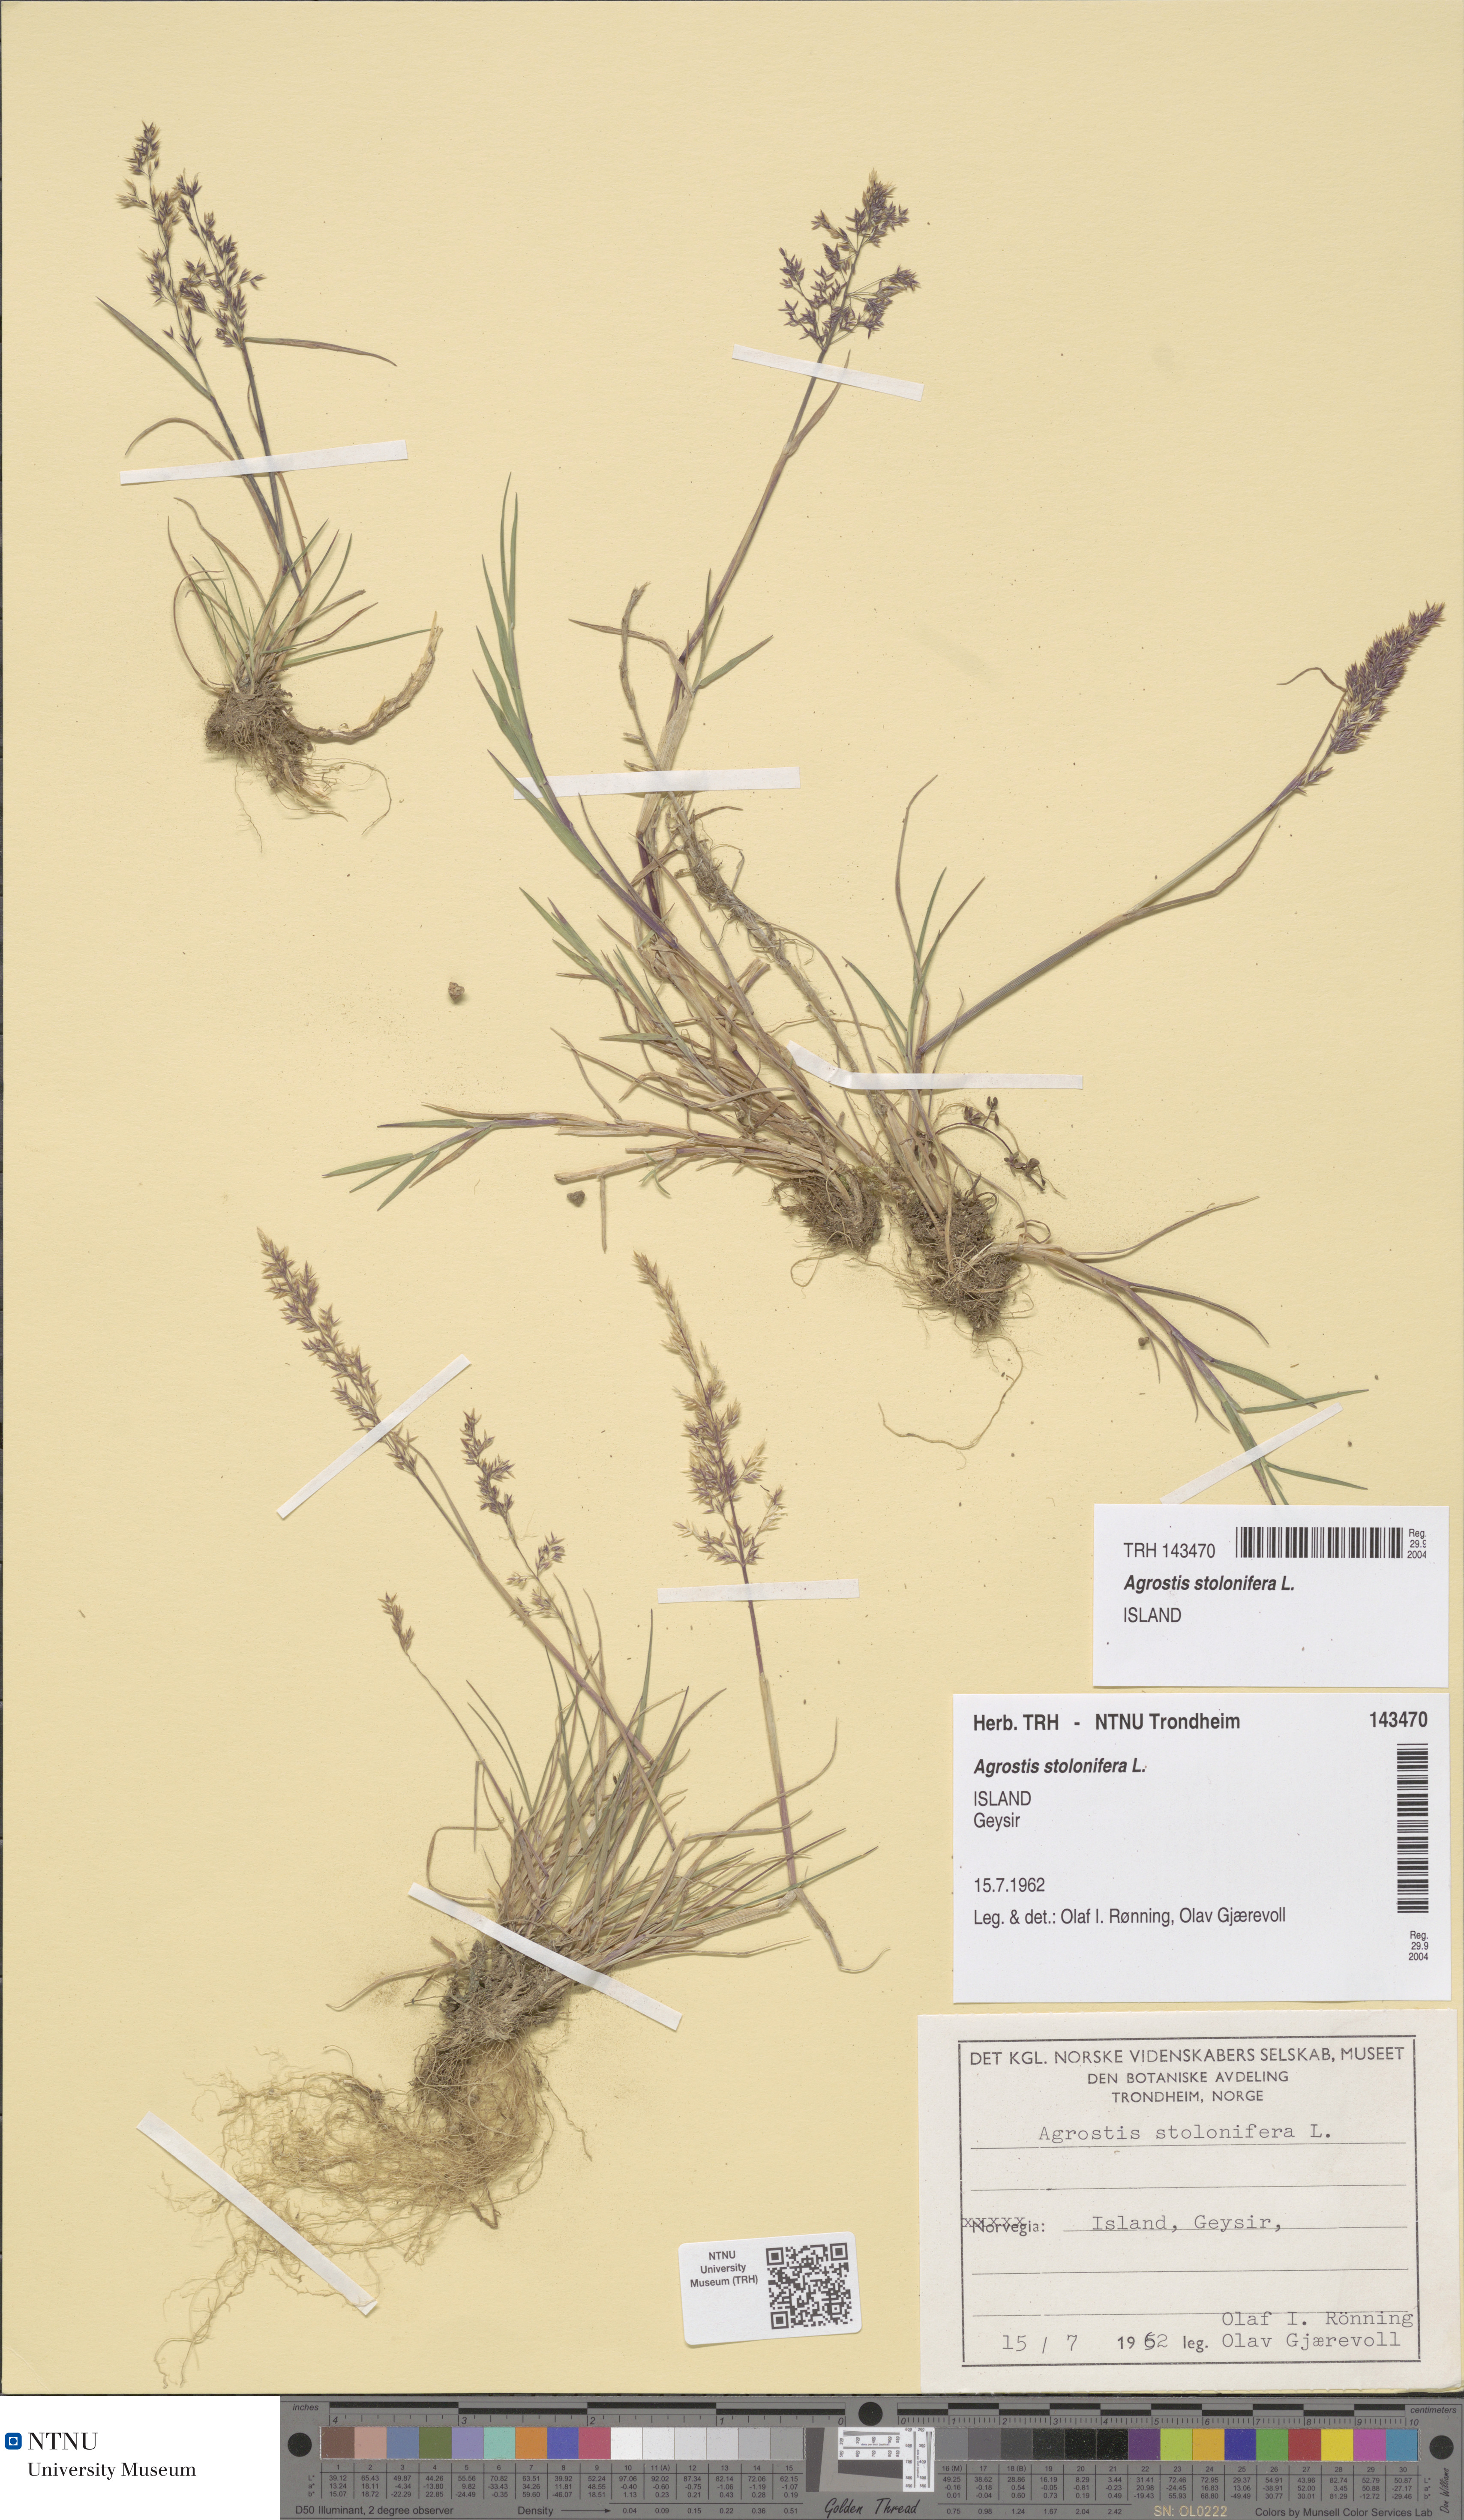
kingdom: Plantae
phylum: Tracheophyta
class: Liliopsida
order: Poales
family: Poaceae
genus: Agrostis
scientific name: Agrostis stolonifera
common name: Creeping bentgrass
